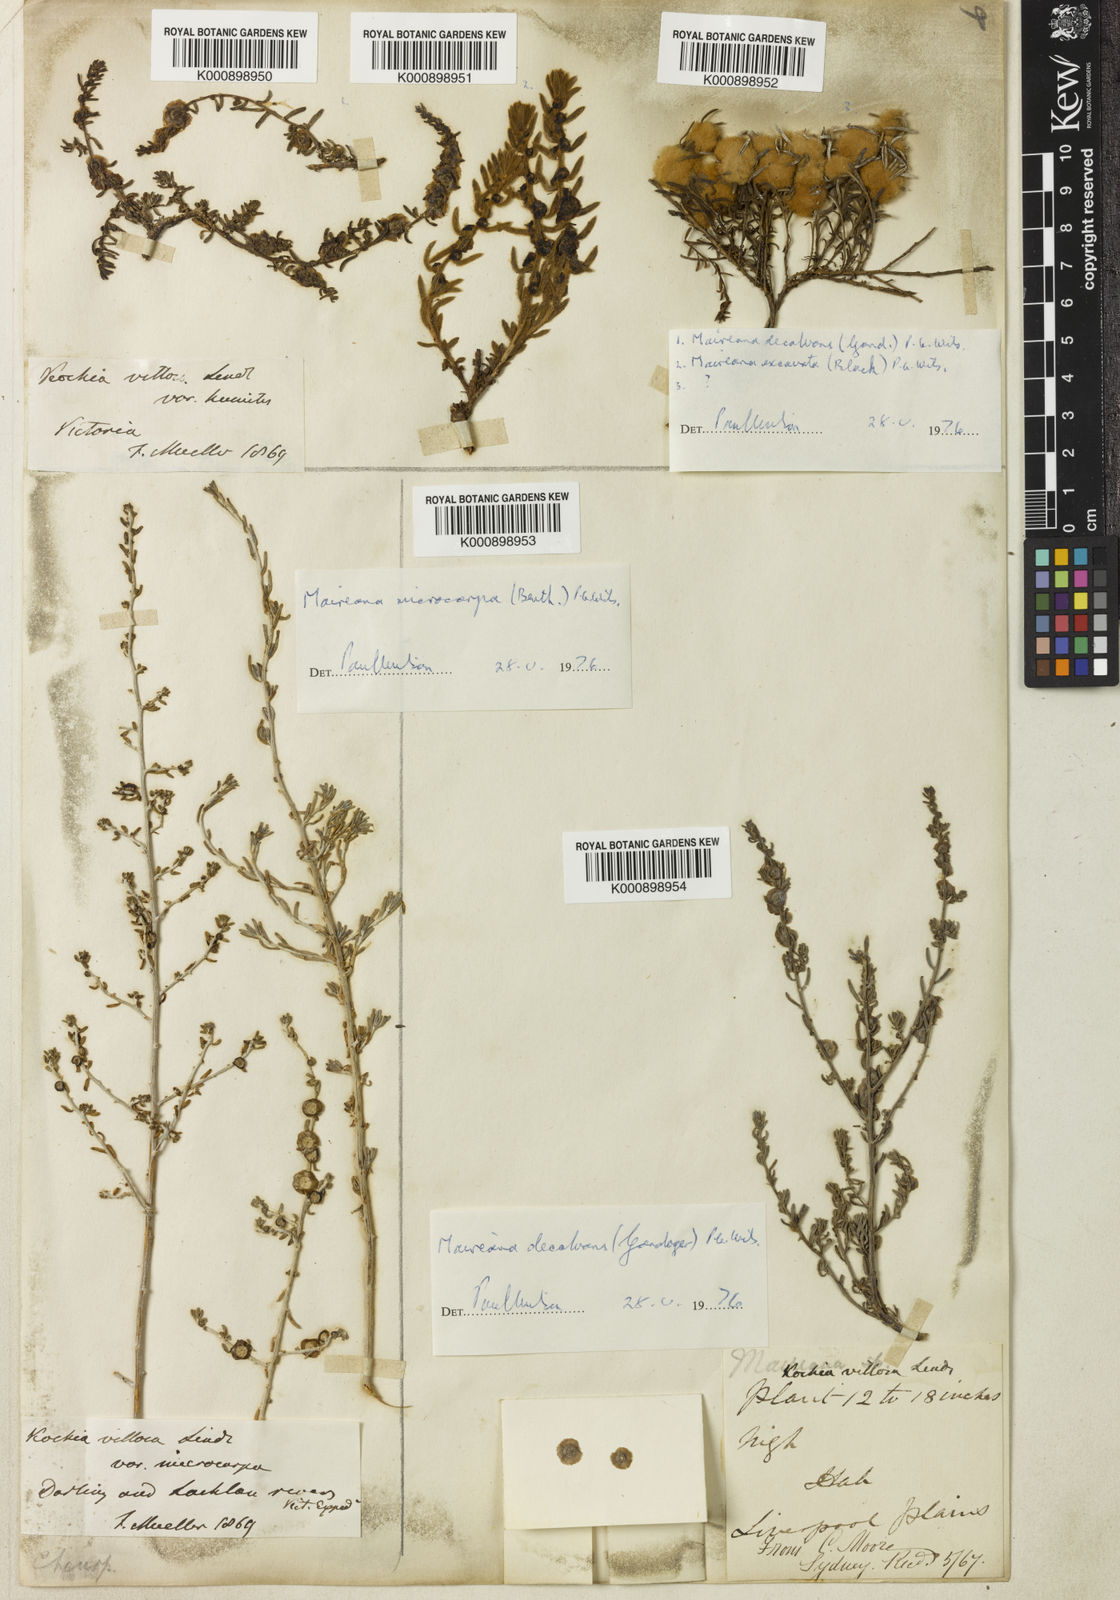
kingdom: Plantae
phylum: Tracheophyta
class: Magnoliopsida
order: Caryophyllales
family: Amaranthaceae
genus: Maireana
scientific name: Maireana villosa
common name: Silky bluebush
